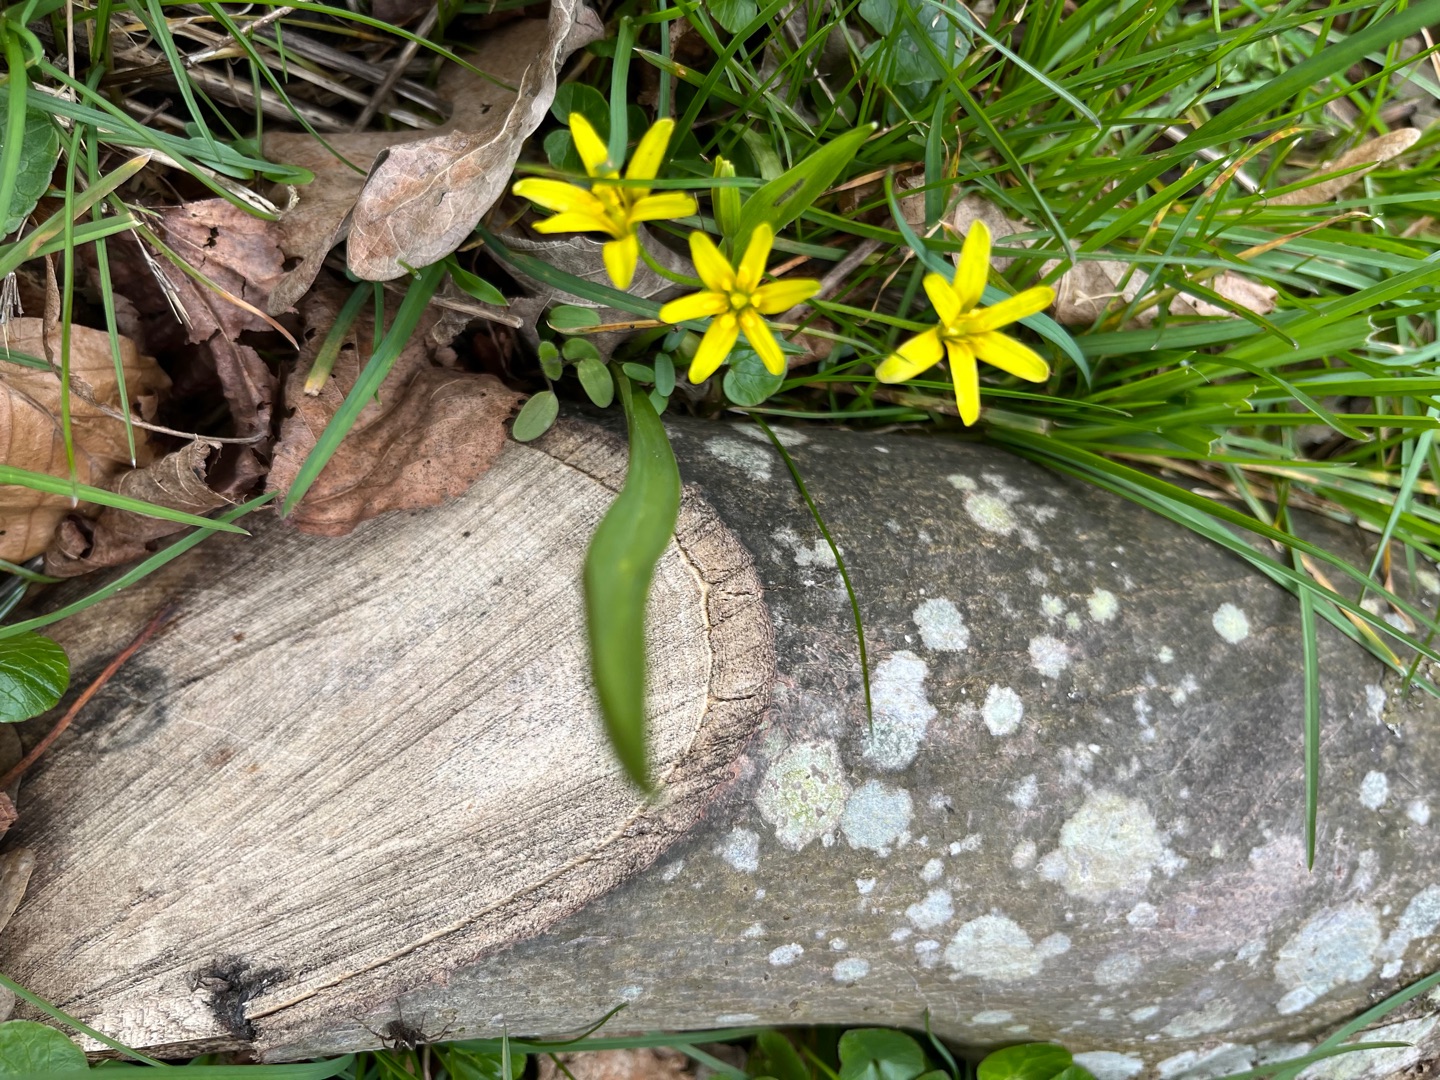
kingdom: Plantae
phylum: Tracheophyta
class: Liliopsida
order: Liliales
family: Liliaceae
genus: Gagea
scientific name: Gagea lutea
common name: Almindelig guldstjerne
